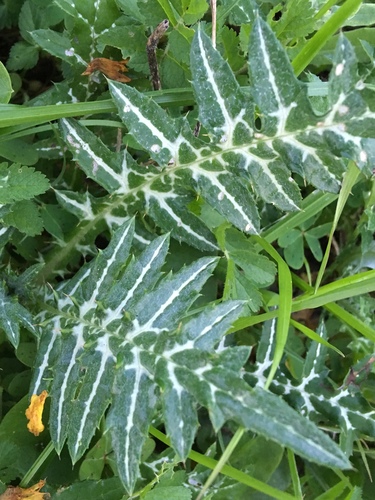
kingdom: Plantae
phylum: Tracheophyta
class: Magnoliopsida
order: Asterales
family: Asteraceae
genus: Galactites
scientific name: Galactites tomentosa
